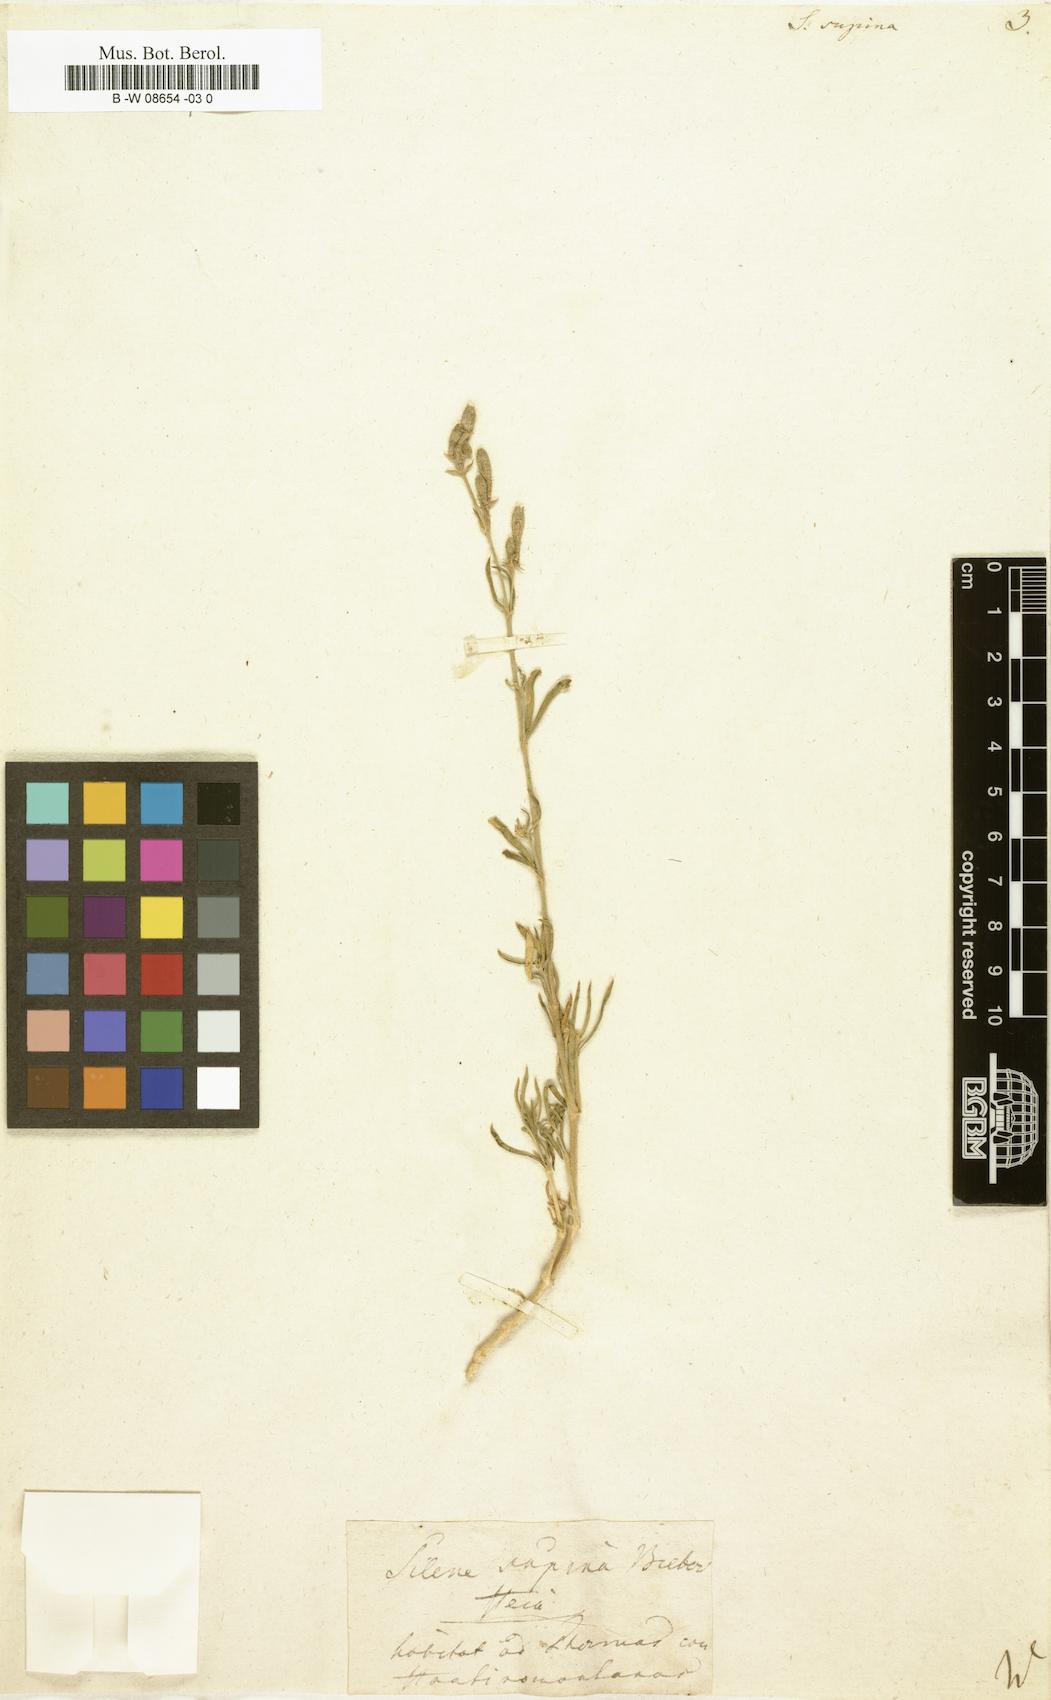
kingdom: Plantae
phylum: Tracheophyta
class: Magnoliopsida
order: Caryophyllales
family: Caryophyllaceae
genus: Silene
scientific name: Silene supina
